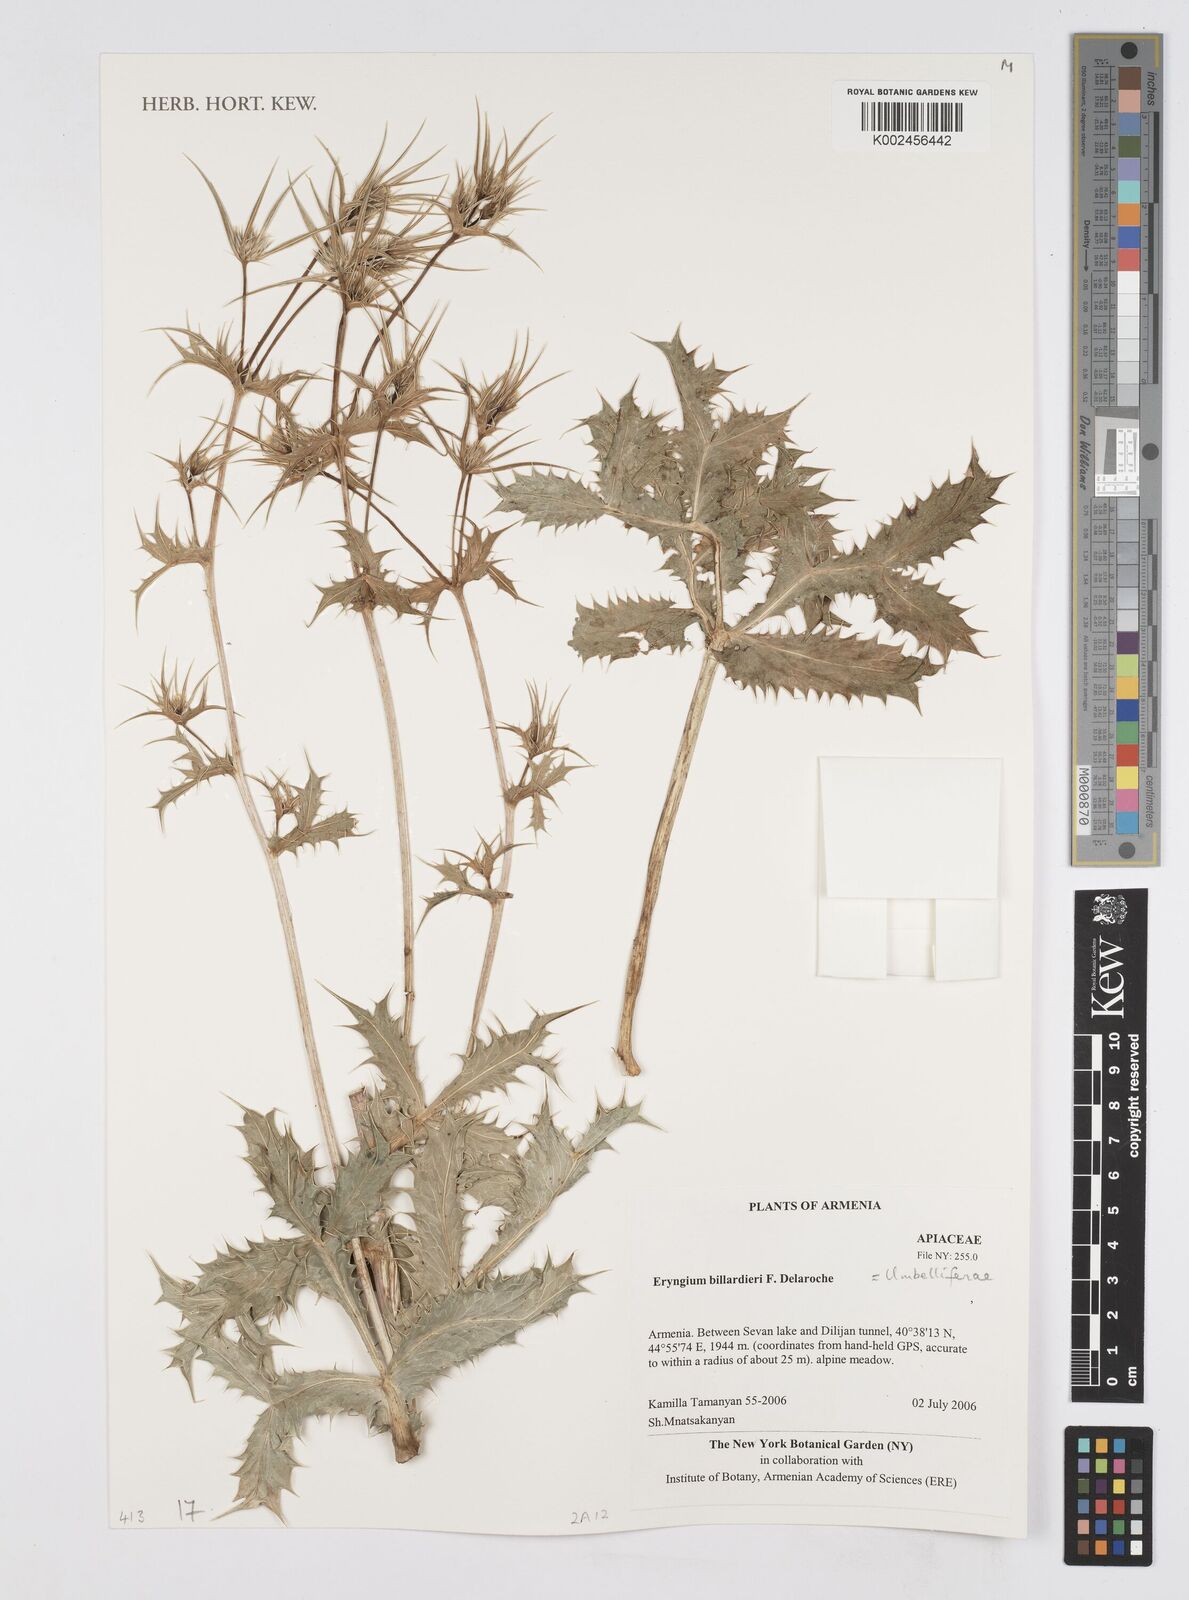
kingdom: Plantae
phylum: Tracheophyta
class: Magnoliopsida
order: Apiales
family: Apiaceae
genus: Eryngium
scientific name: Eryngium billardierei
